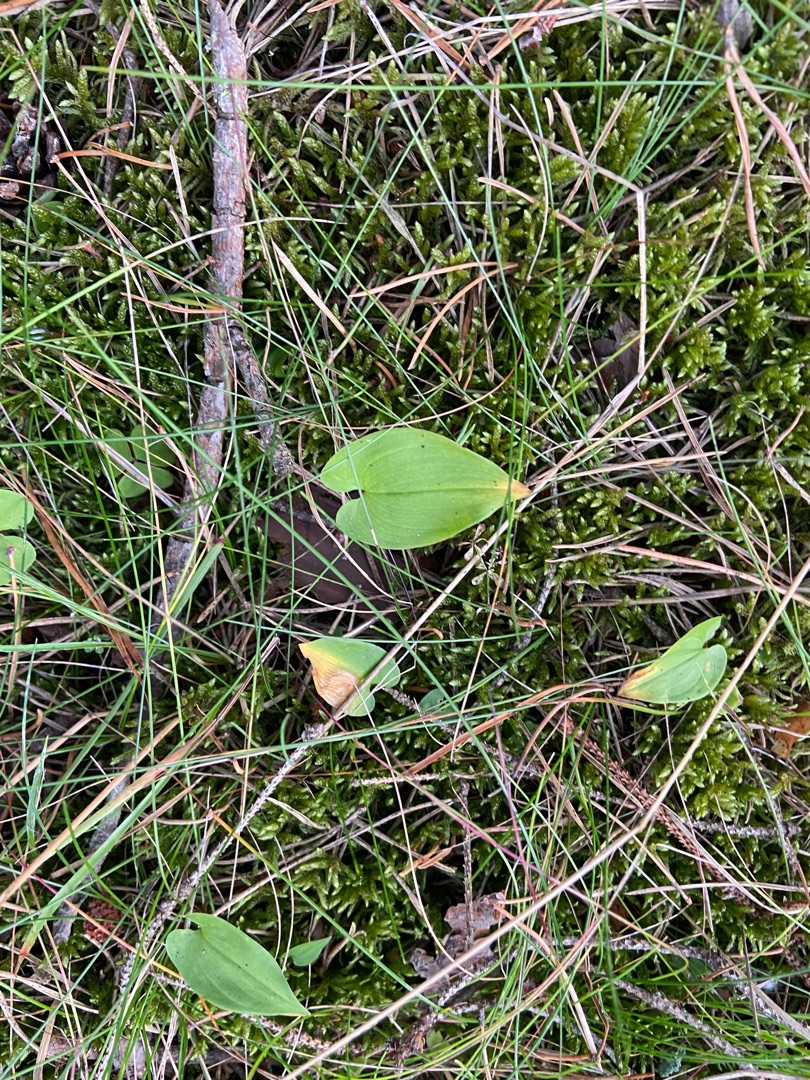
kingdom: Plantae
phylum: Tracheophyta
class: Liliopsida
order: Asparagales
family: Asparagaceae
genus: Maianthemum
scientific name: Maianthemum bifolium
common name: Majblomst
